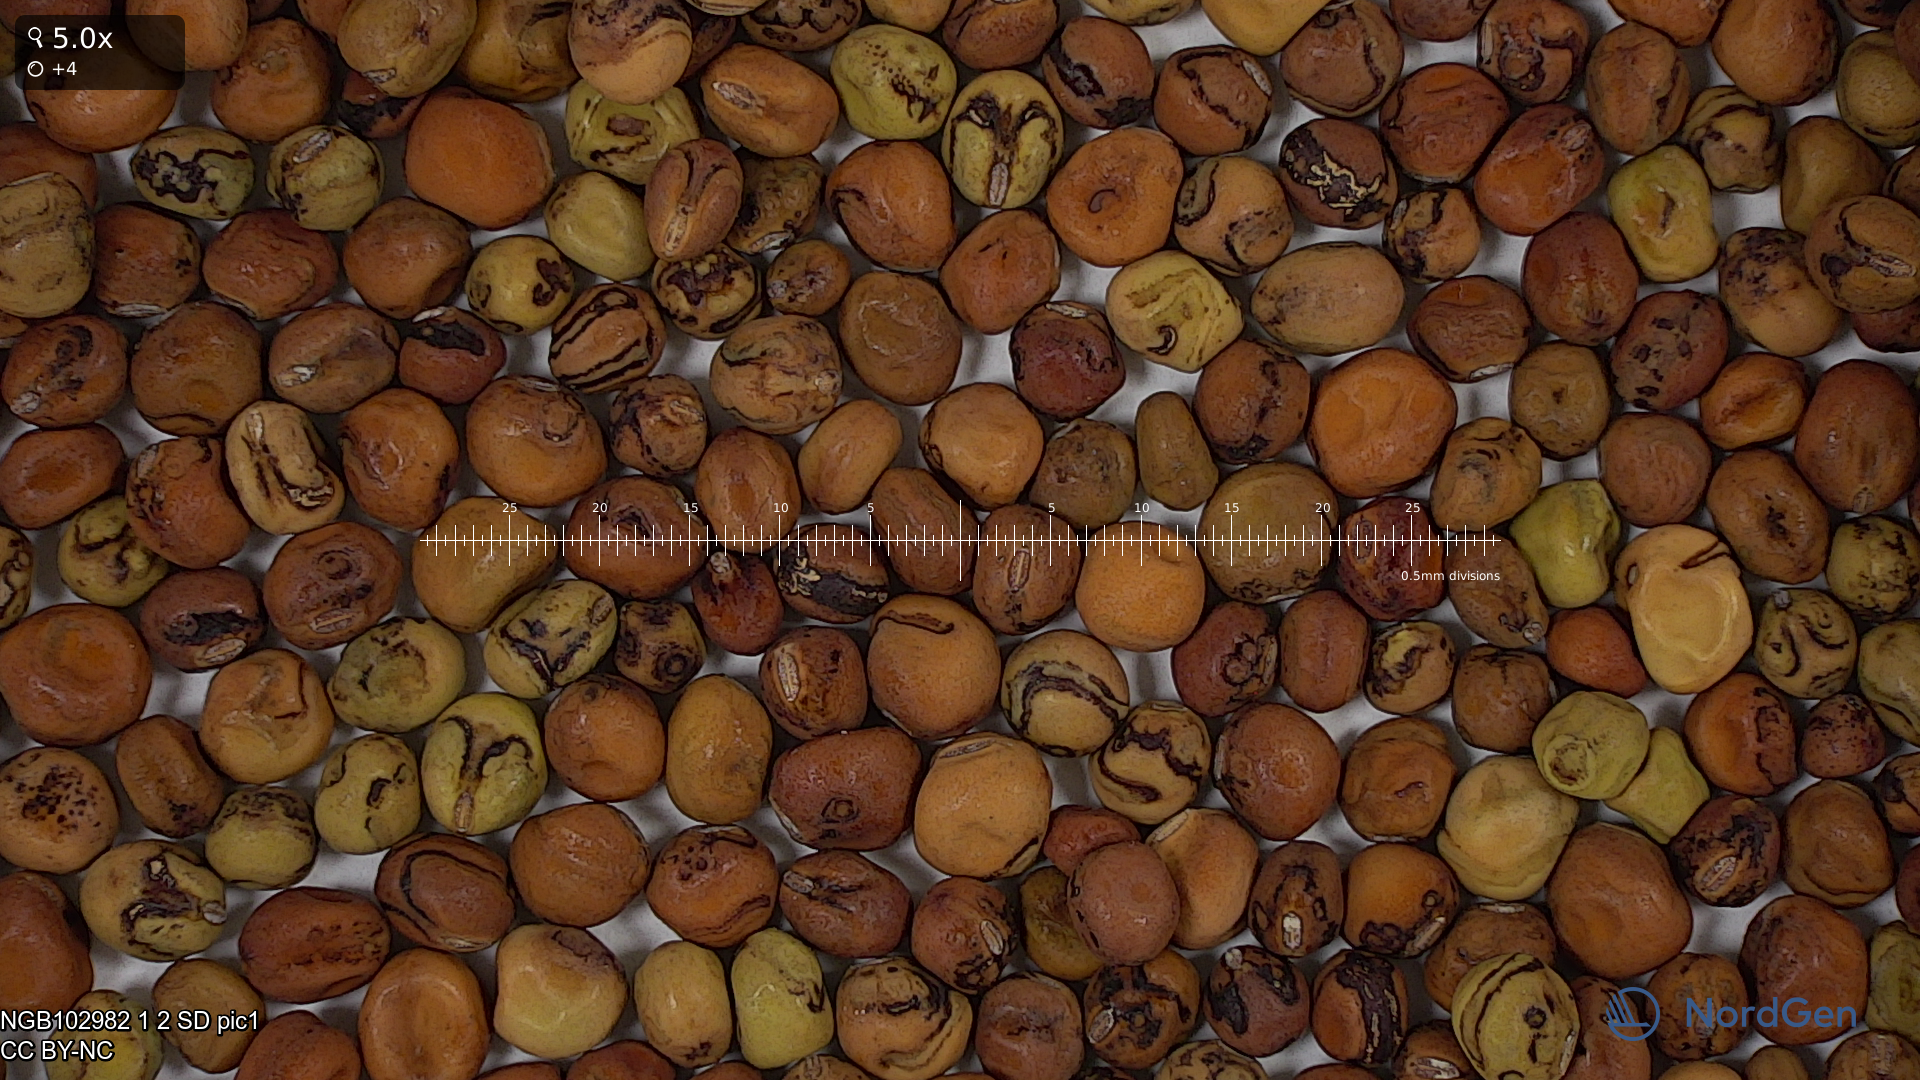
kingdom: Plantae
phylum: Tracheophyta
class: Magnoliopsida
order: Fabales
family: Fabaceae
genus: Lathyrus
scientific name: Lathyrus oleraceus
